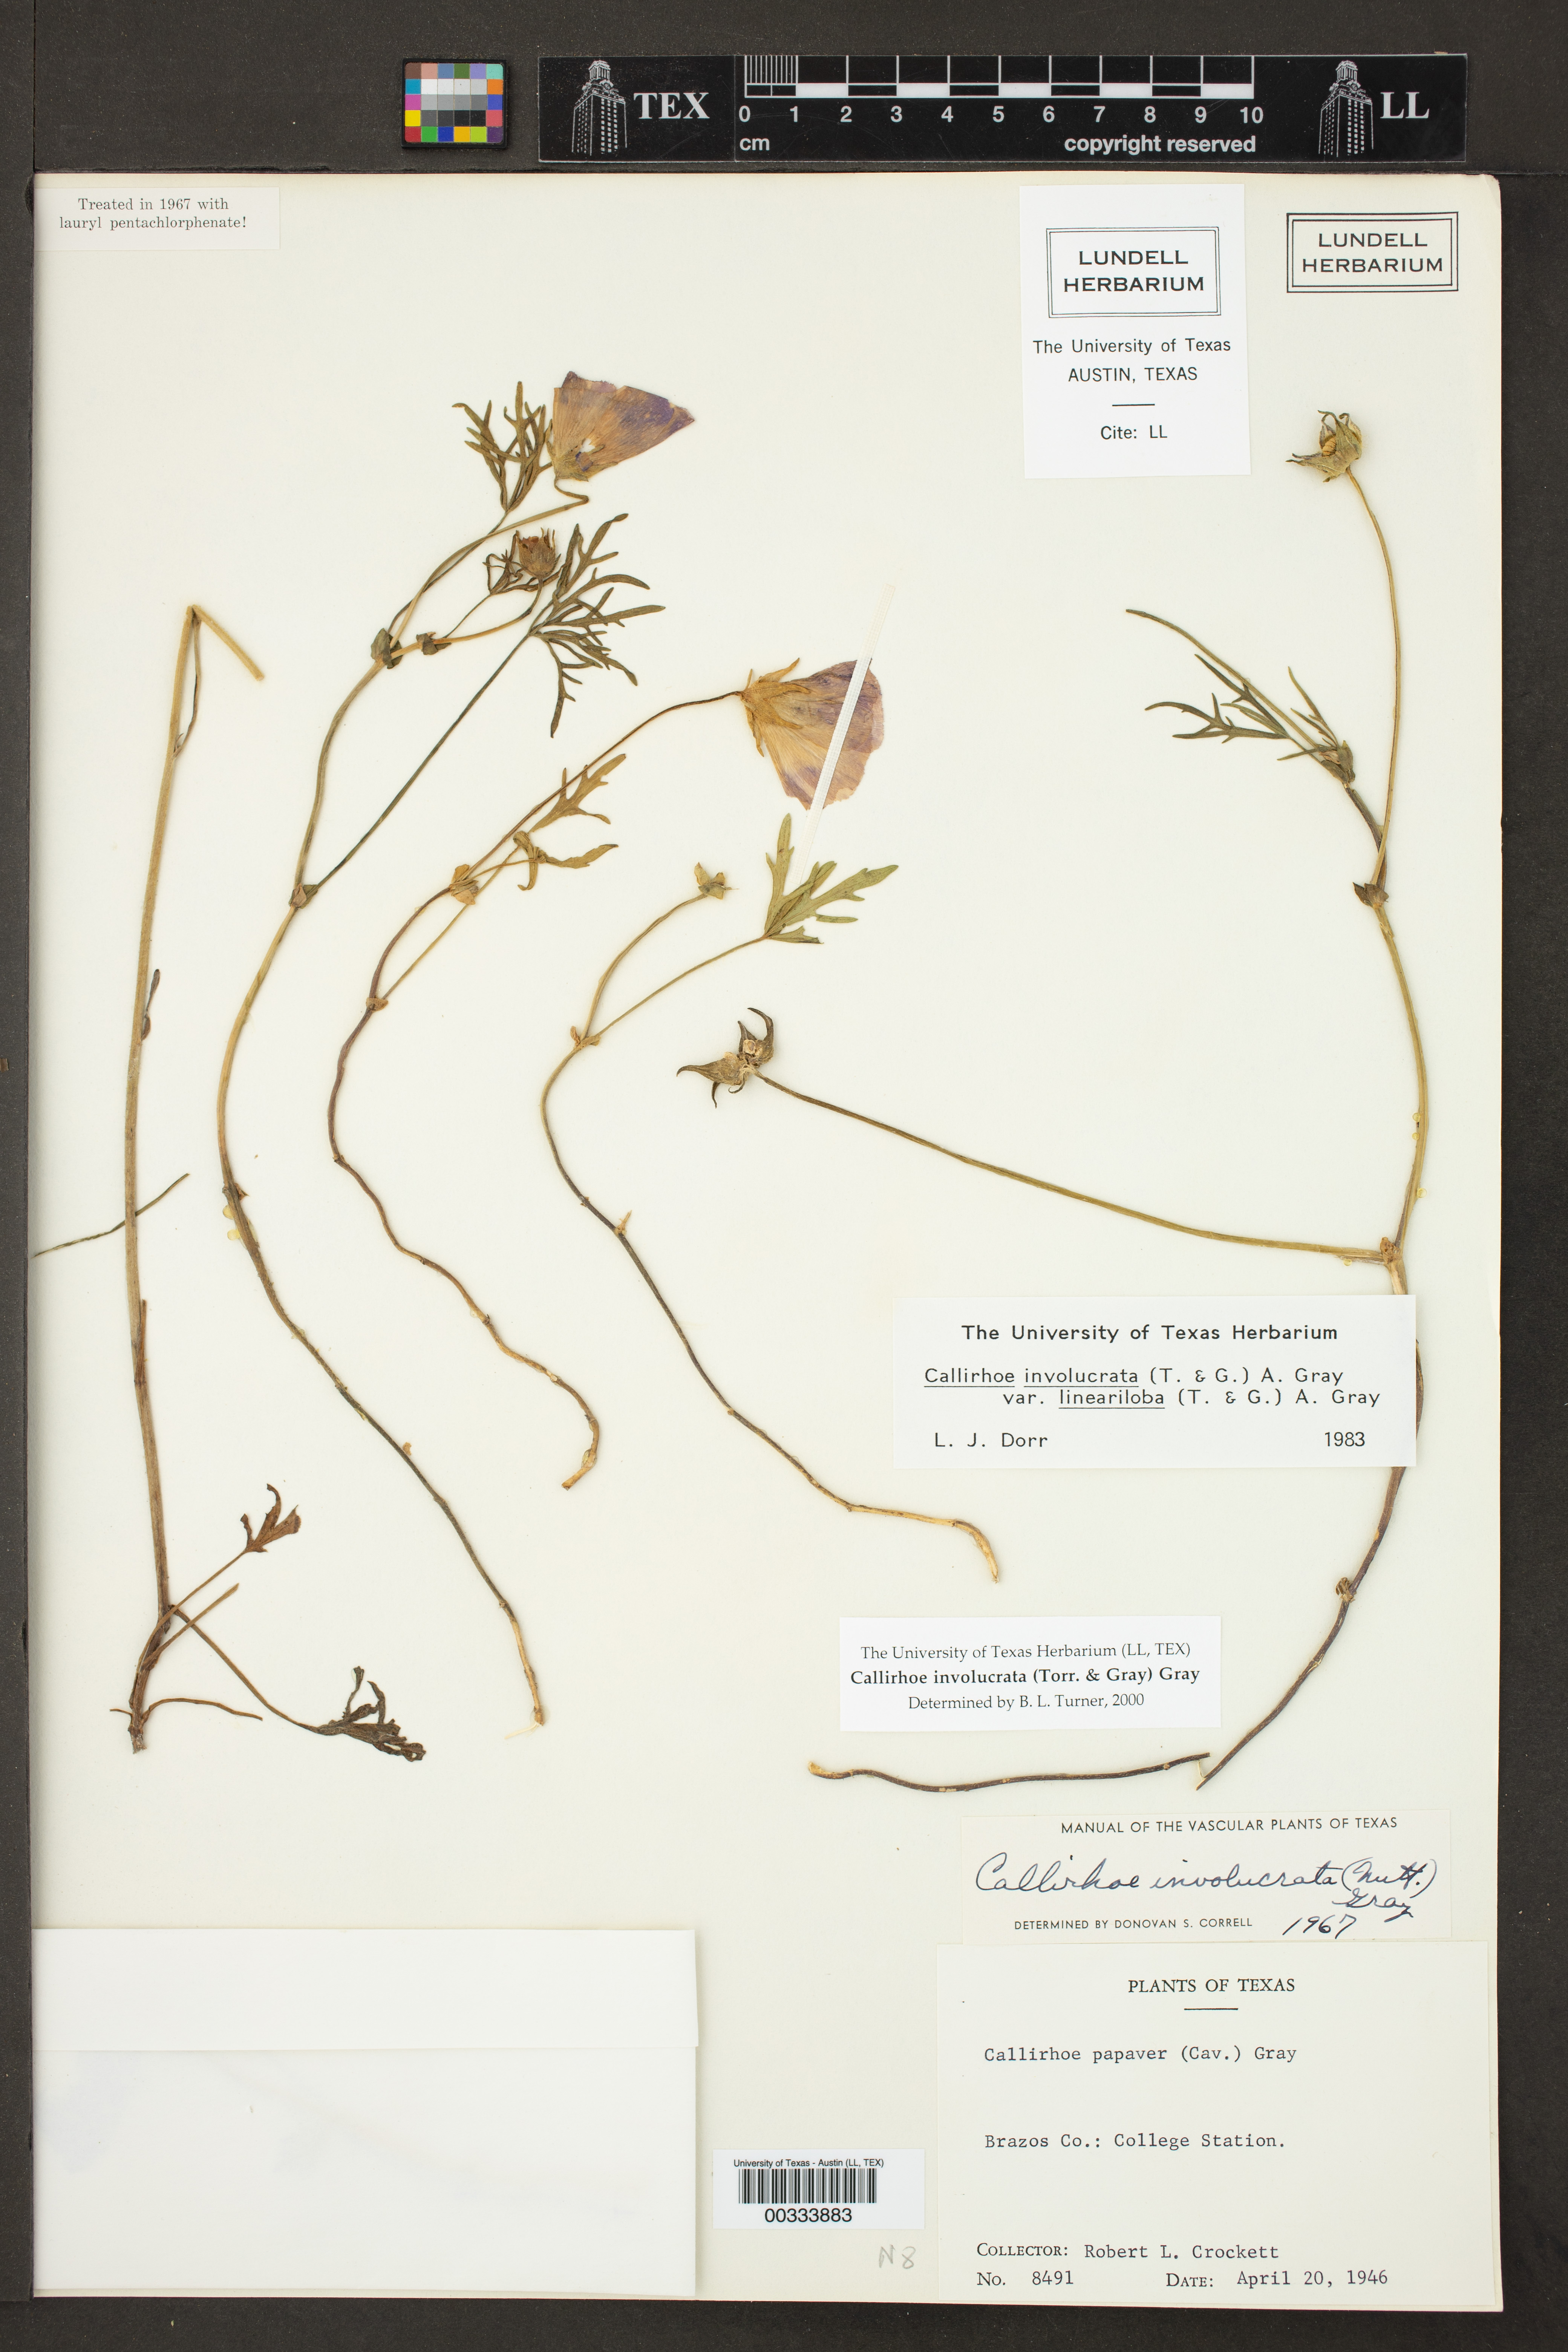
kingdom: Plantae
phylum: Tracheophyta
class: Magnoliopsida
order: Malvales
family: Malvaceae
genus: Callirhoe
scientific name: Callirhoe involucrata
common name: Purple poppy-mallow
